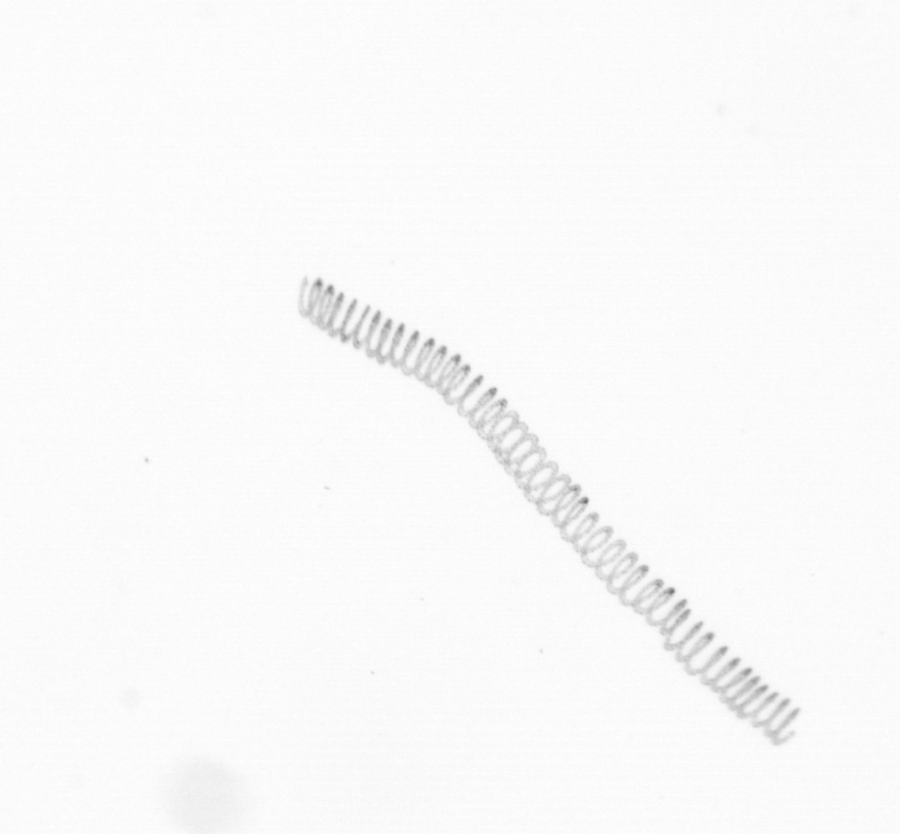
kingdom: Chromista
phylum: Ochrophyta
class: Bacillariophyceae
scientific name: Bacillariophyceae
